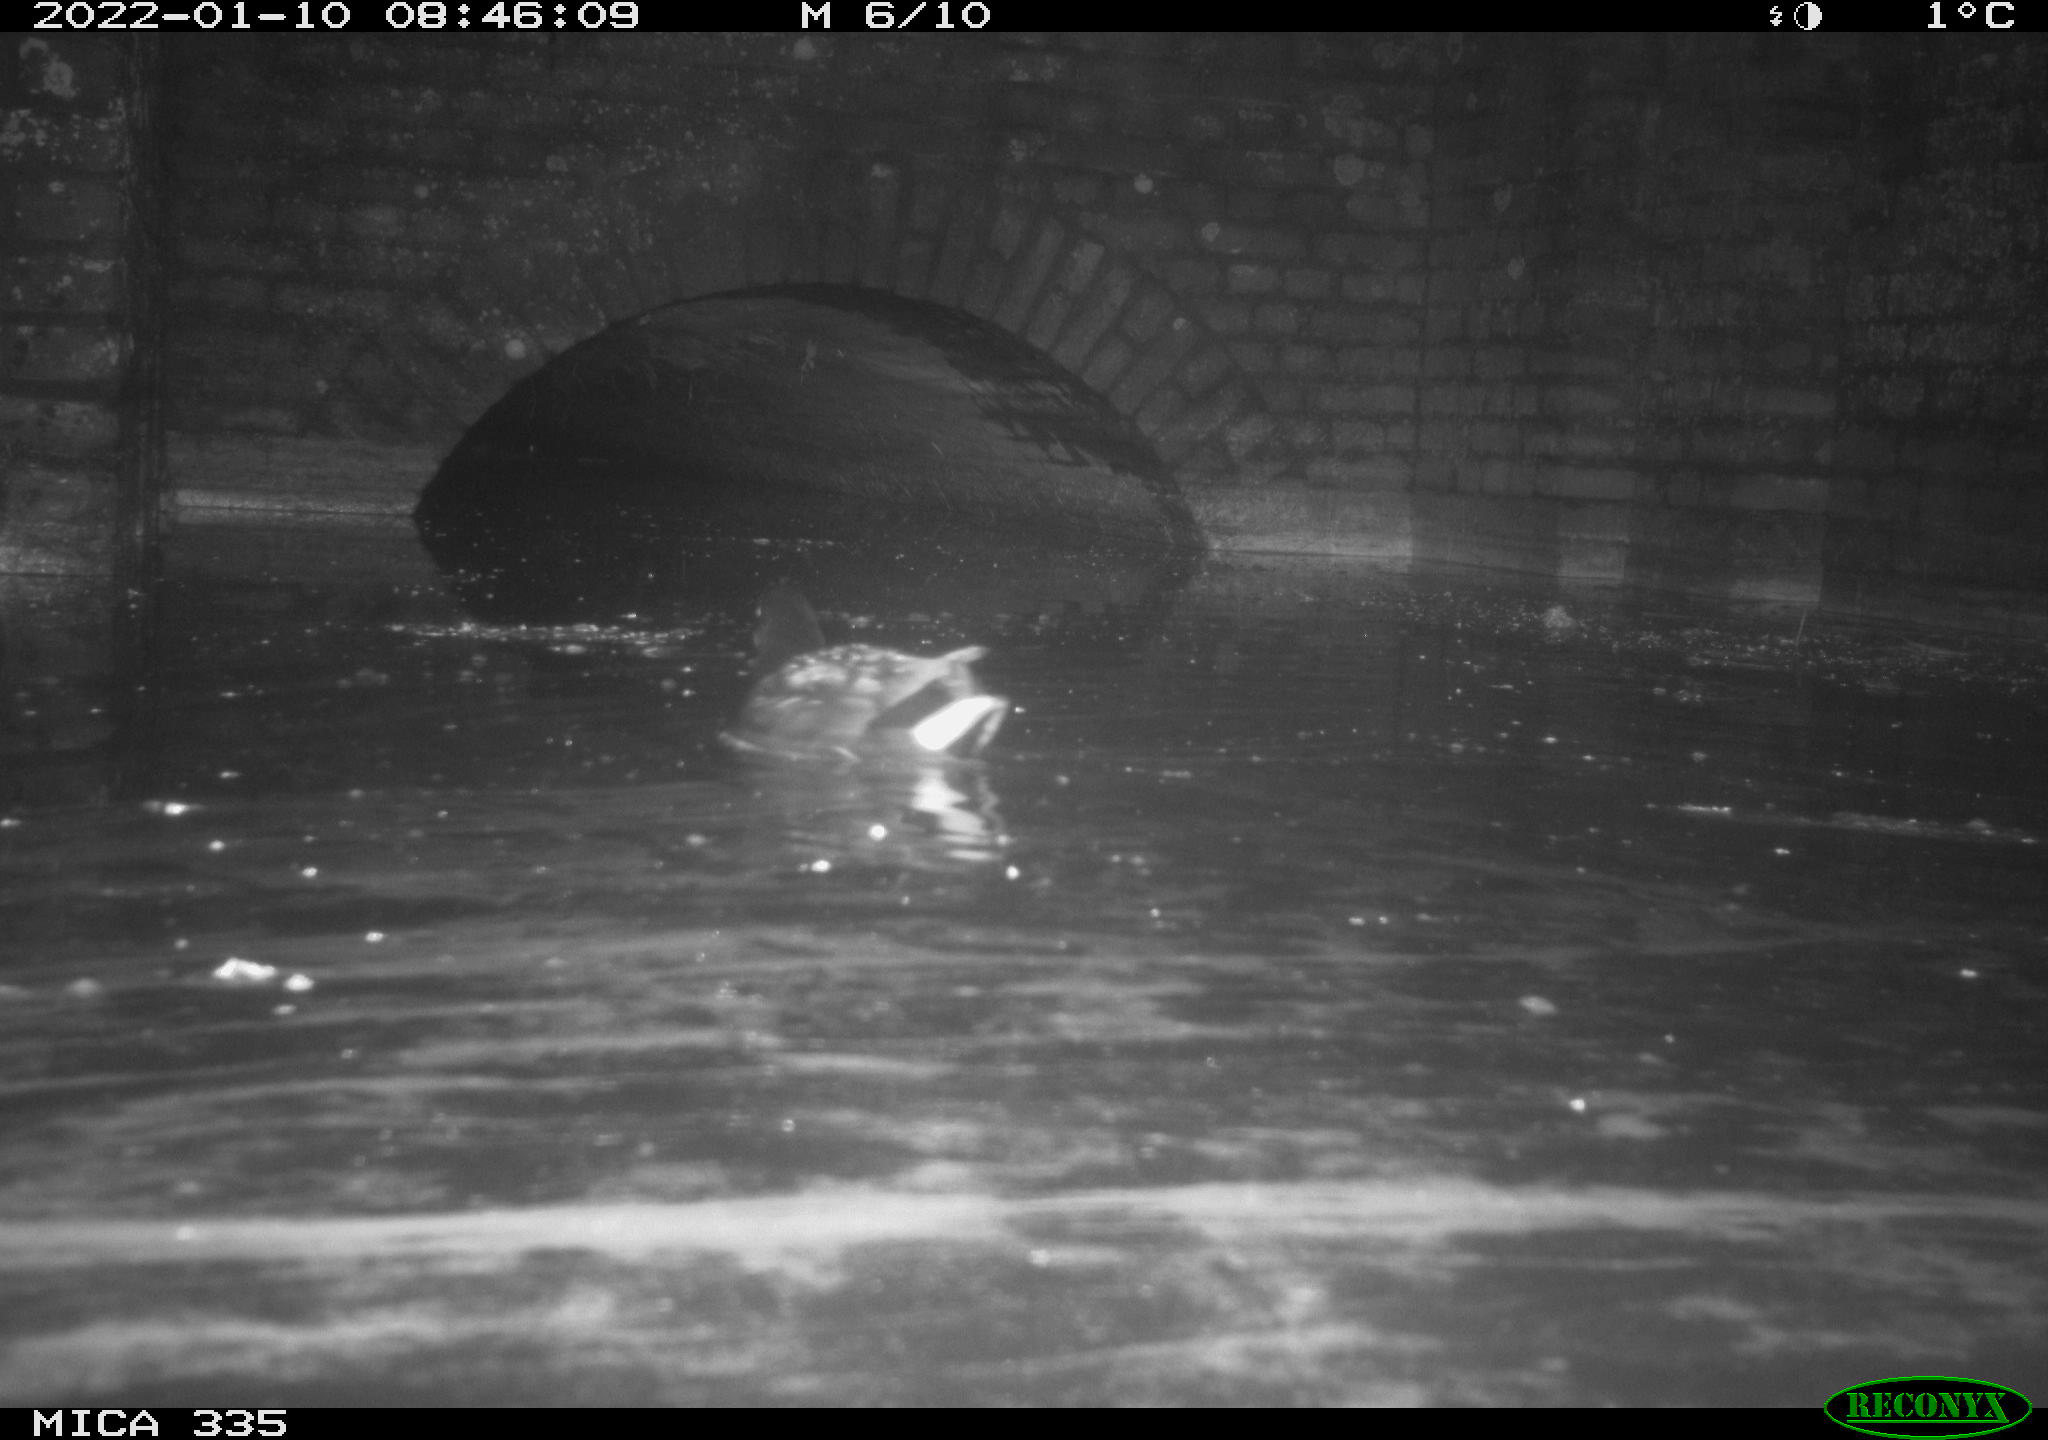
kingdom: Animalia
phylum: Chordata
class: Aves
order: Gruiformes
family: Rallidae
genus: Gallinula
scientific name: Gallinula chloropus
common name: Common moorhen
